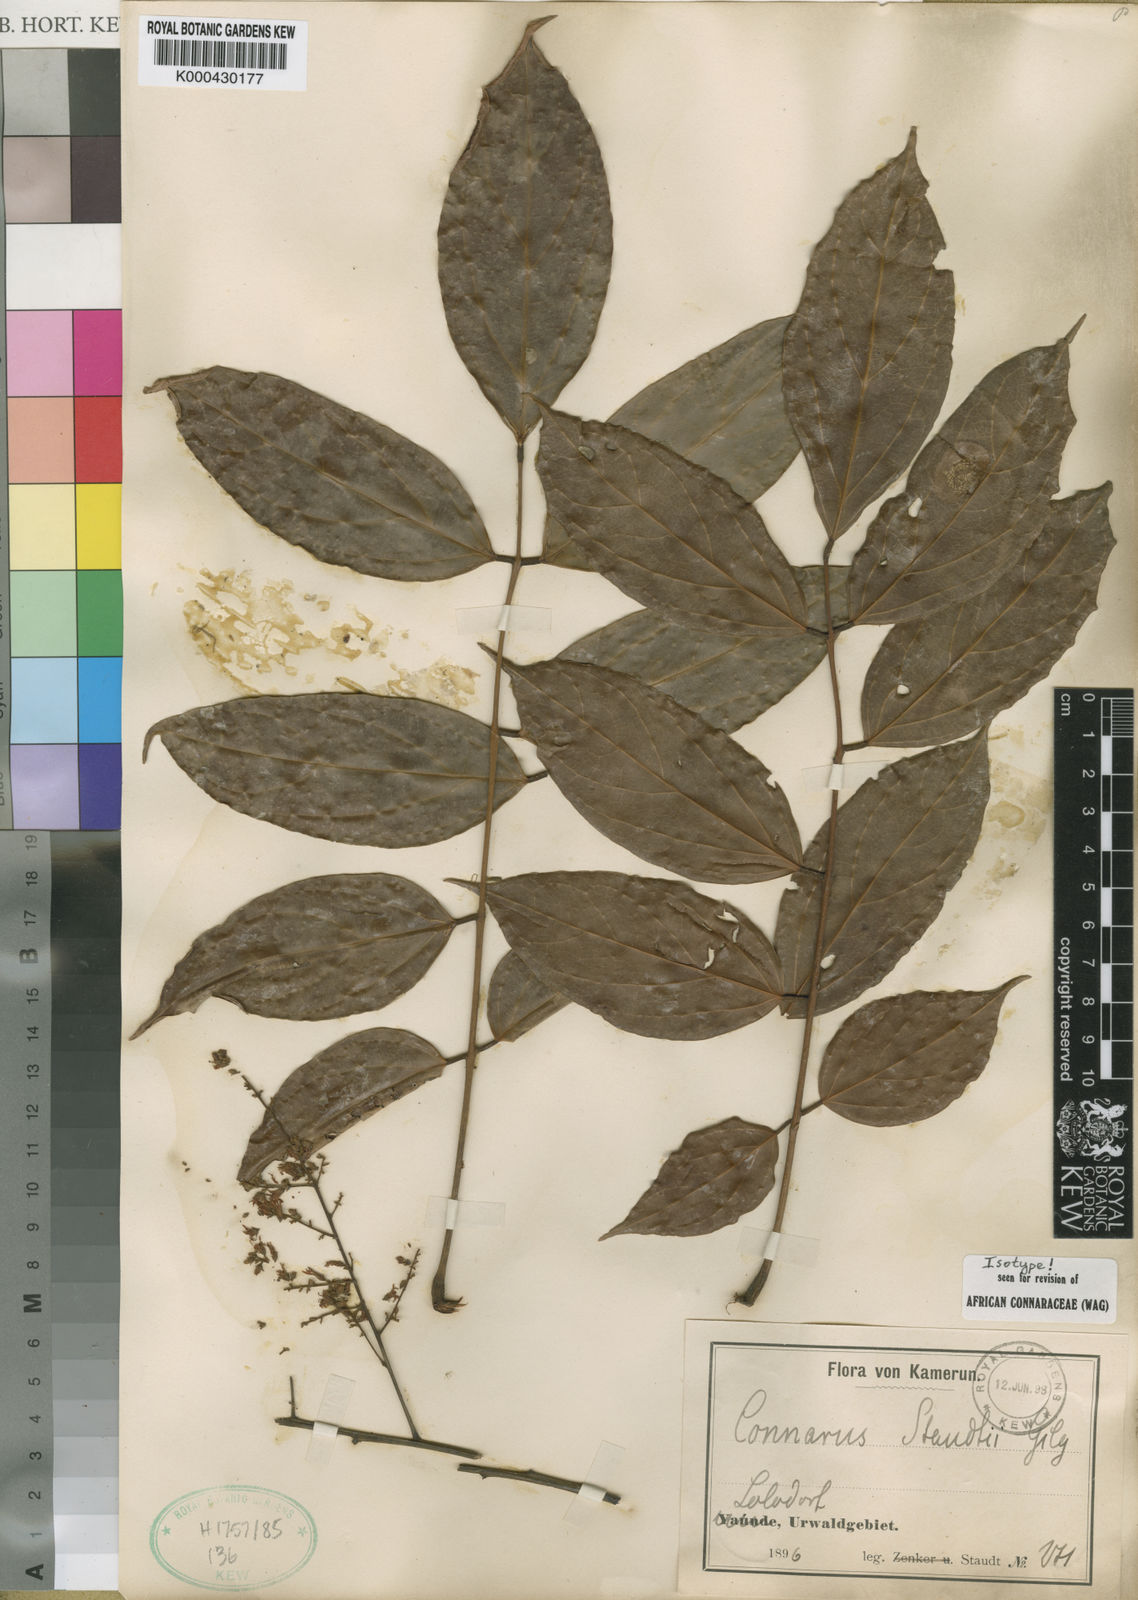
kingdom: Plantae
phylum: Tracheophyta
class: Magnoliopsida
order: Oxalidales
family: Connaraceae
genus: Connarus
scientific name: Connarus staudtii
